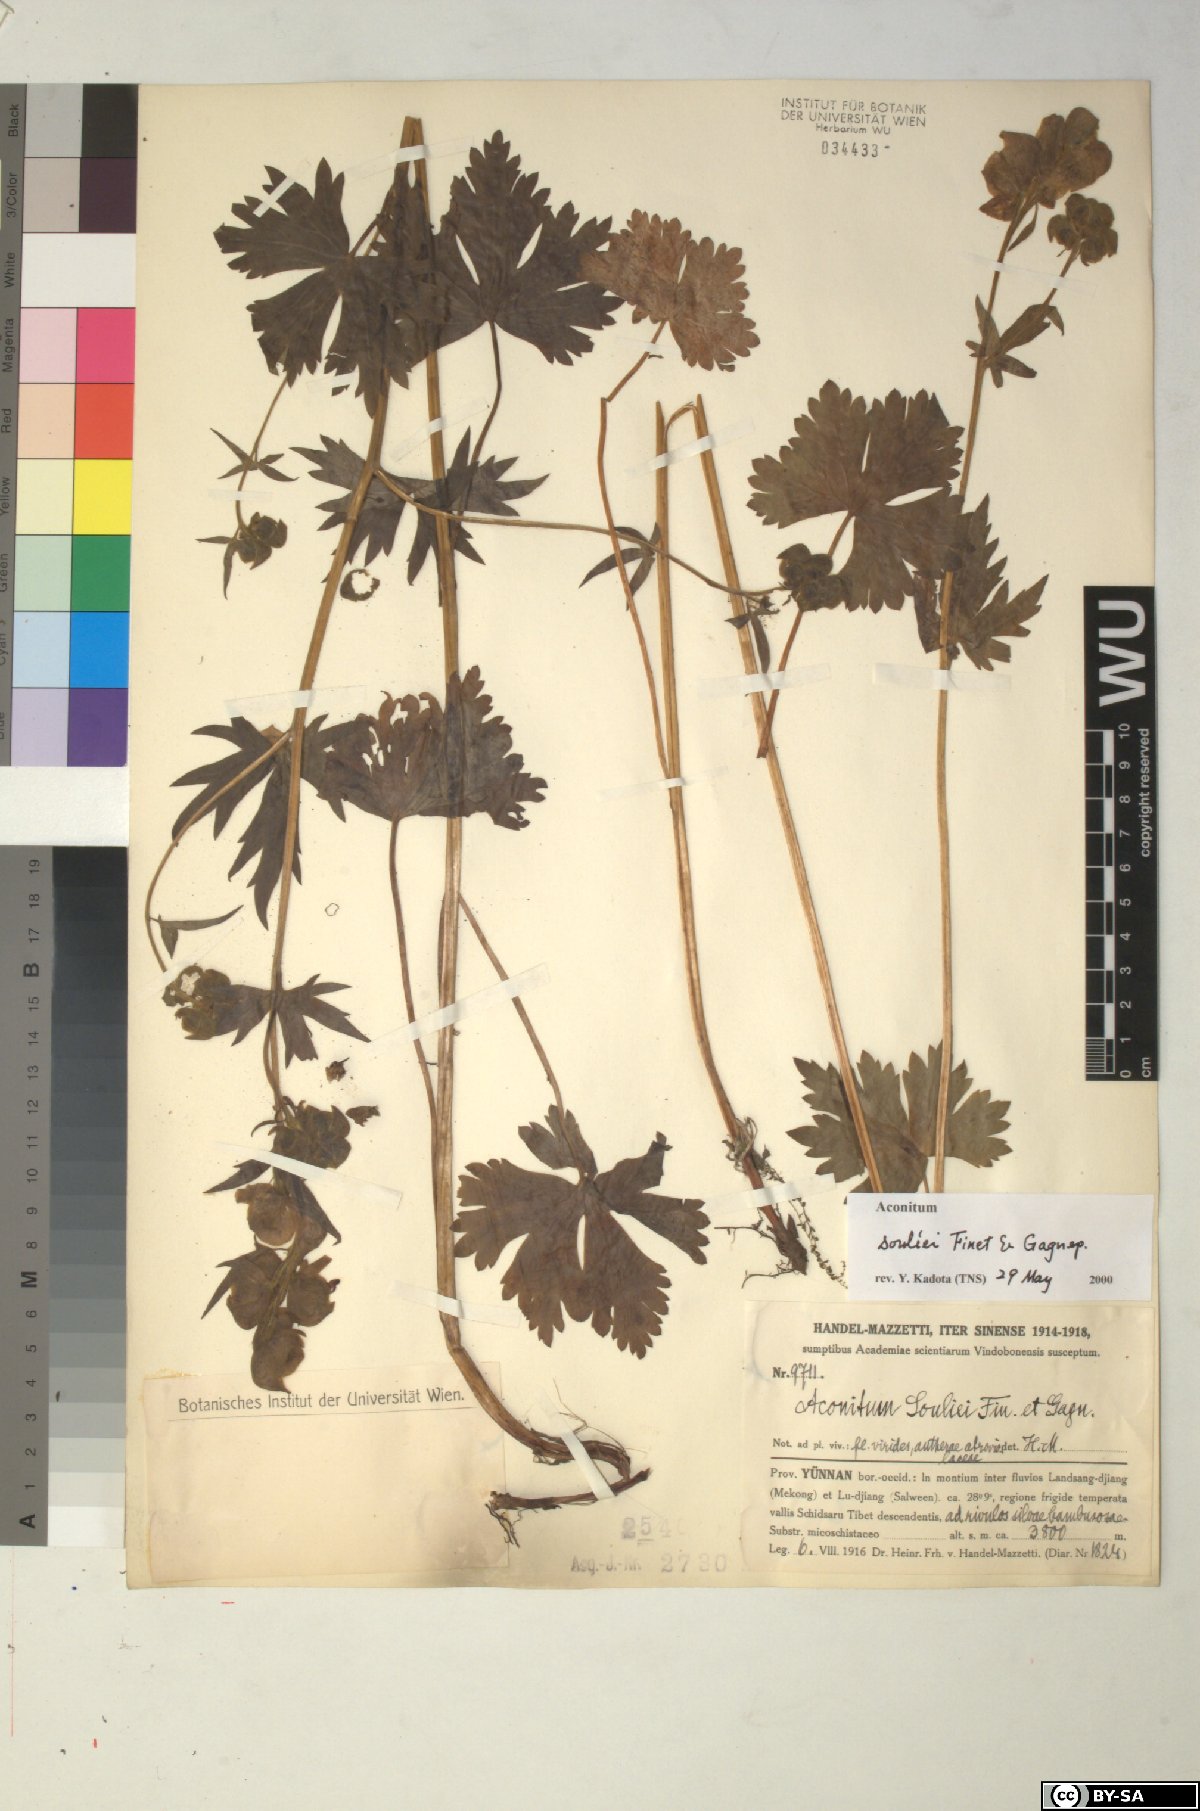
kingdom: Plantae
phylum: Tracheophyta
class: Magnoliopsida
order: Ranunculales
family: Ranunculaceae
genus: Aconitum
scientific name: Aconitum souliei
